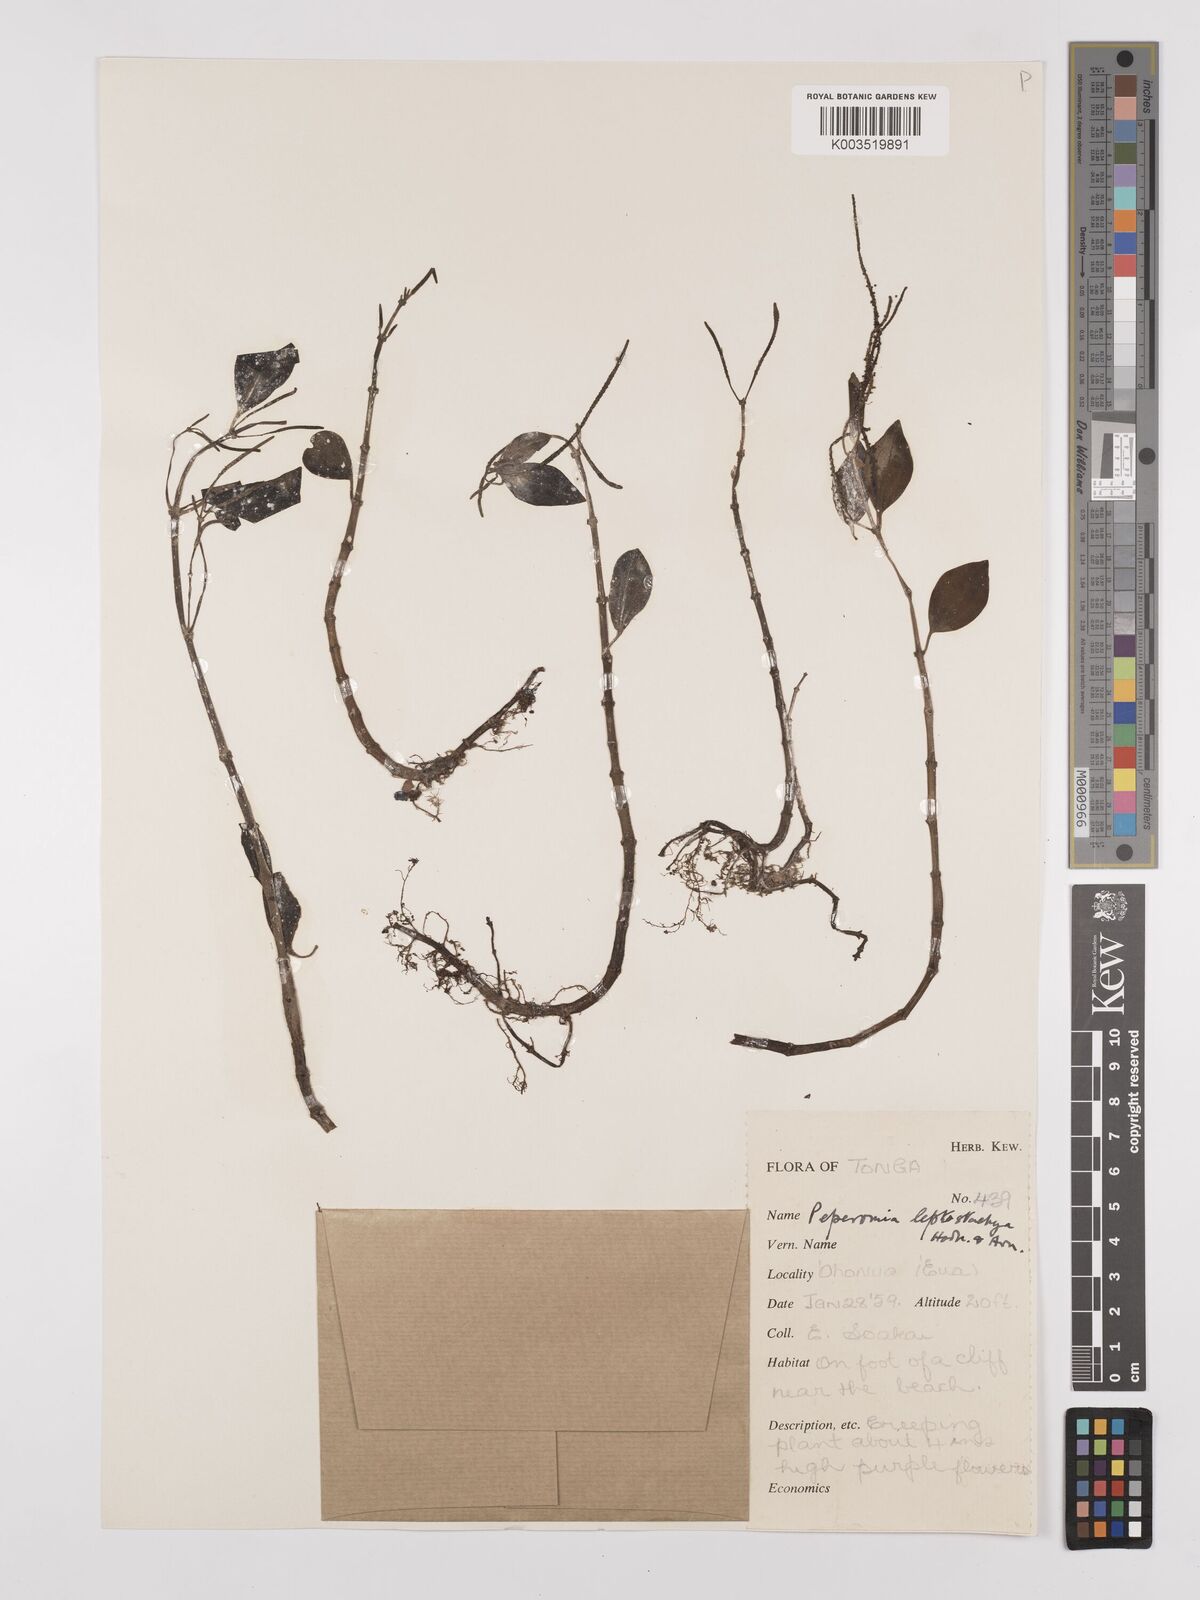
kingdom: Plantae
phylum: Tracheophyta
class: Magnoliopsida
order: Piperales
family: Piperaceae
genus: Peperomia
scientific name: Peperomia leptostachya
